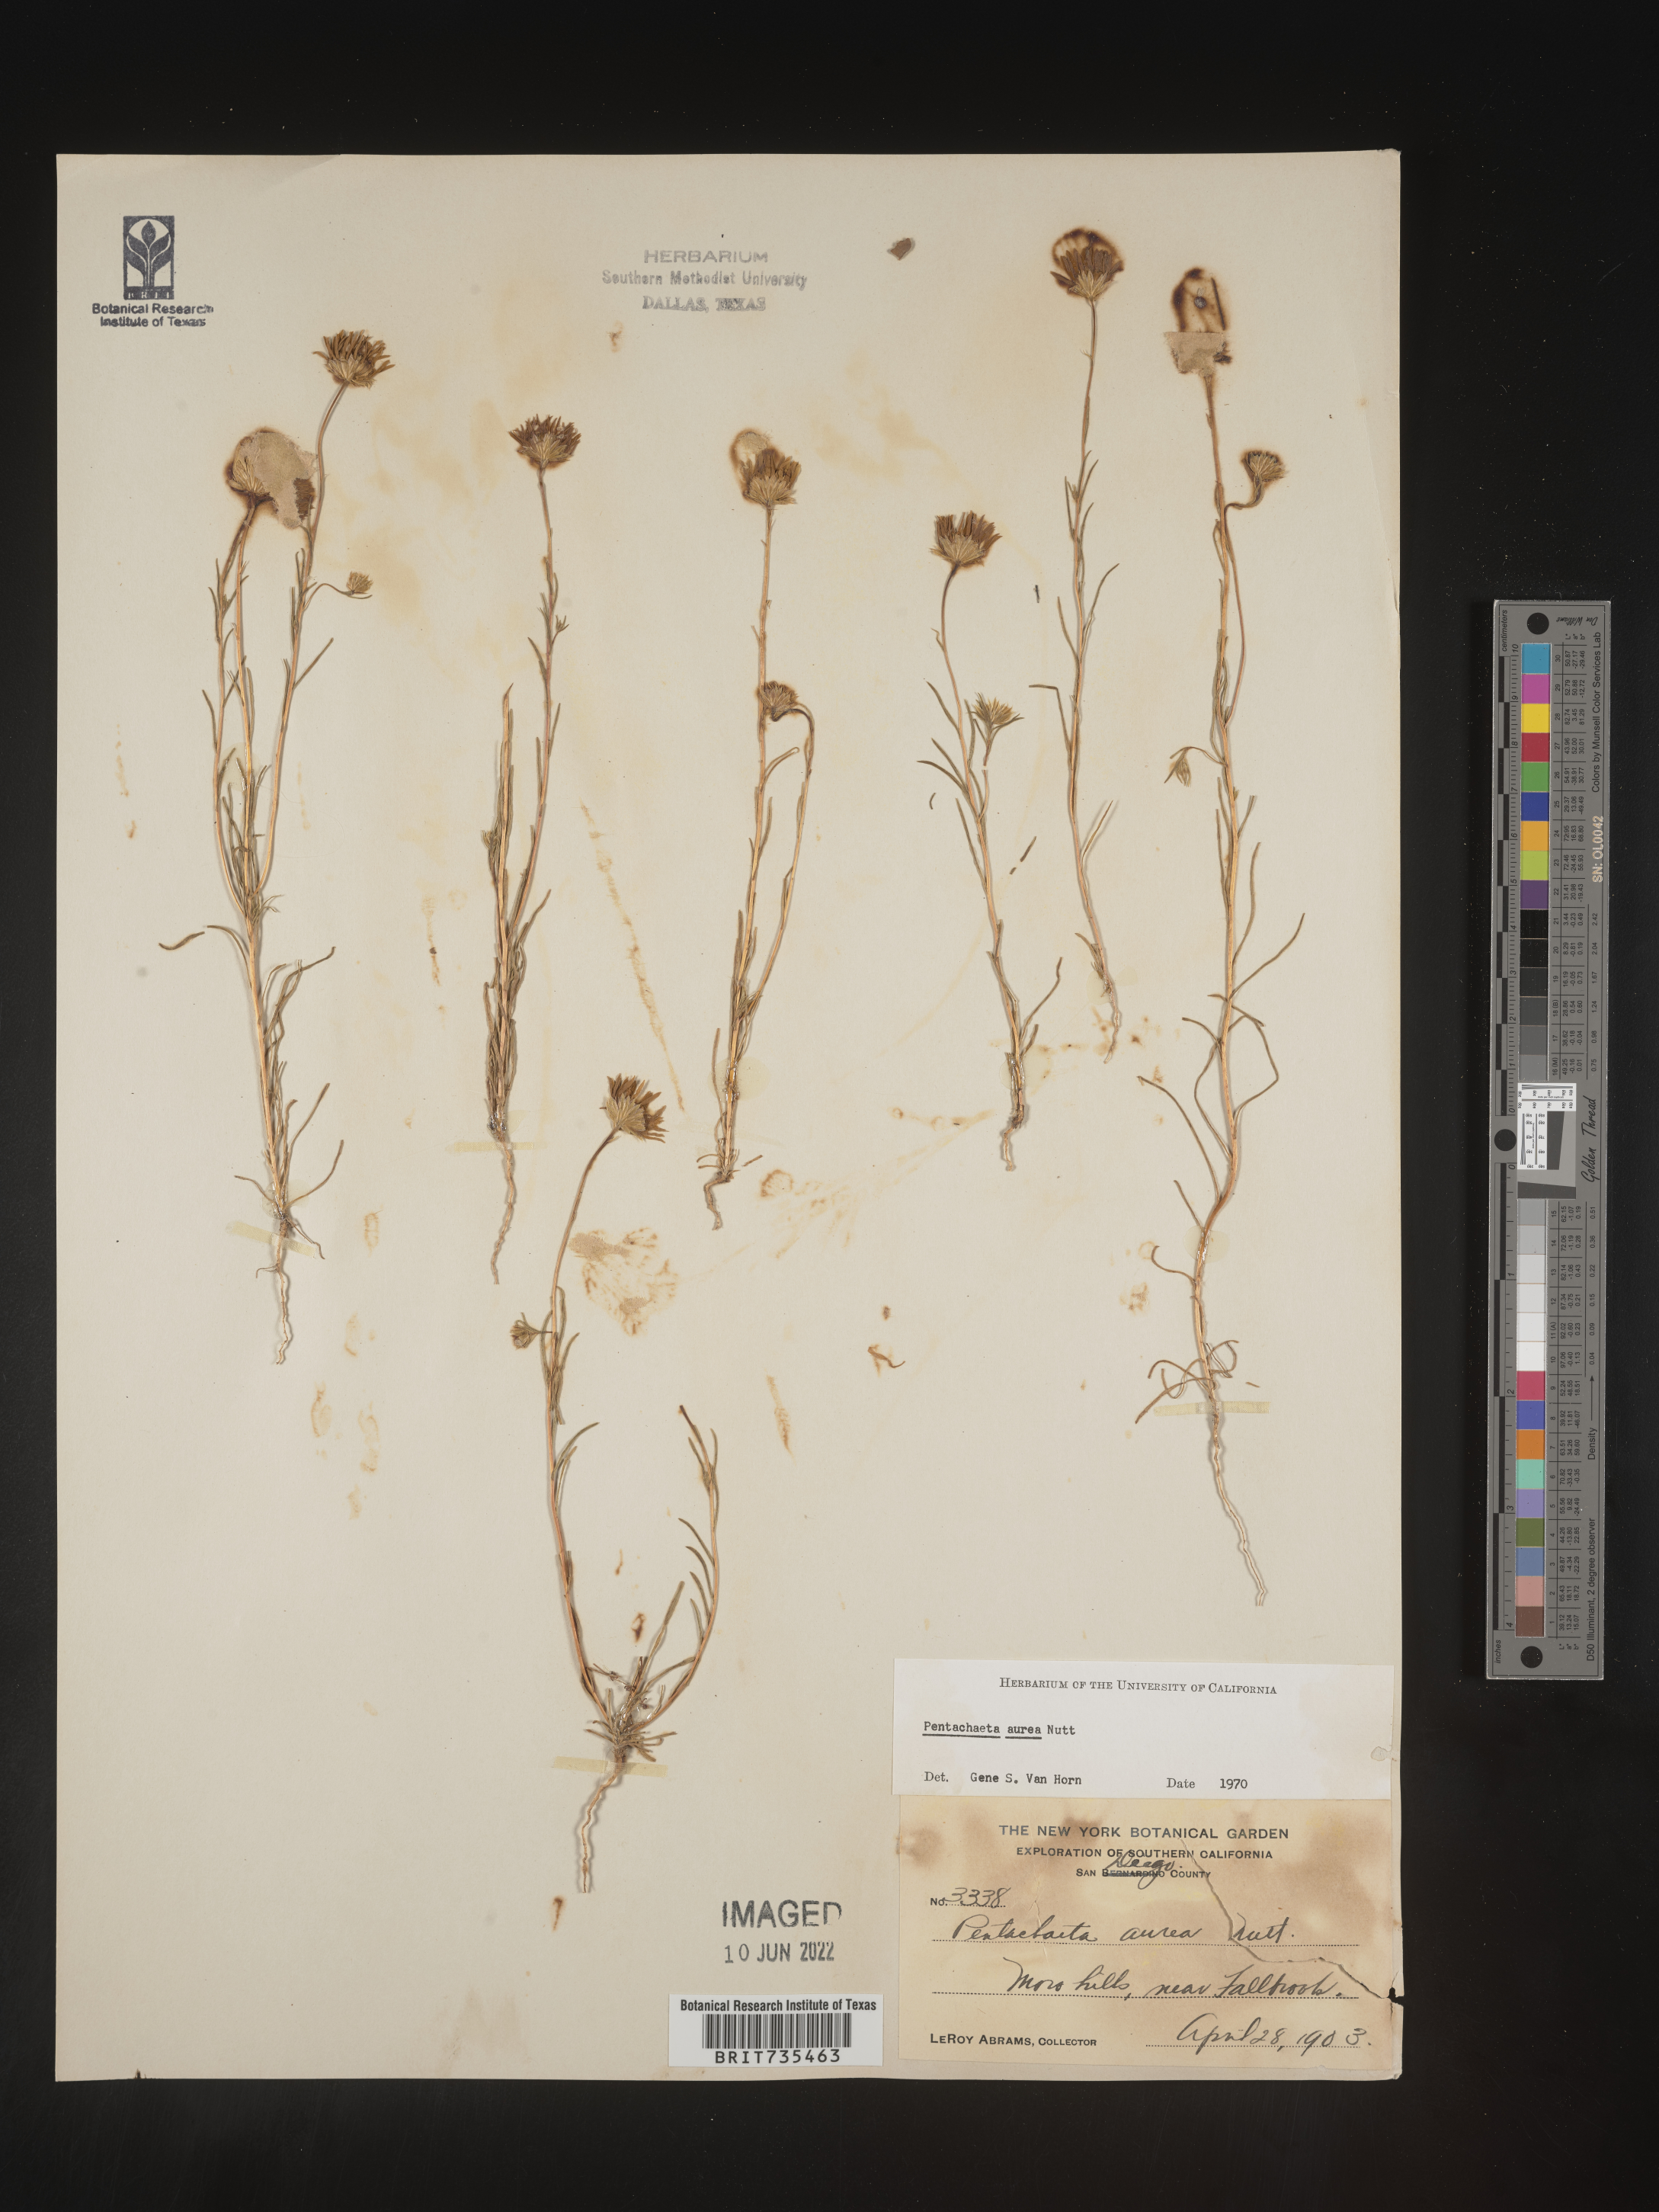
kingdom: Plantae
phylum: Tracheophyta
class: Magnoliopsida
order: Asterales
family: Asteraceae
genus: Pentachaeta
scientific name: Pentachaeta aurea
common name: Golden-ray pentachaeta
